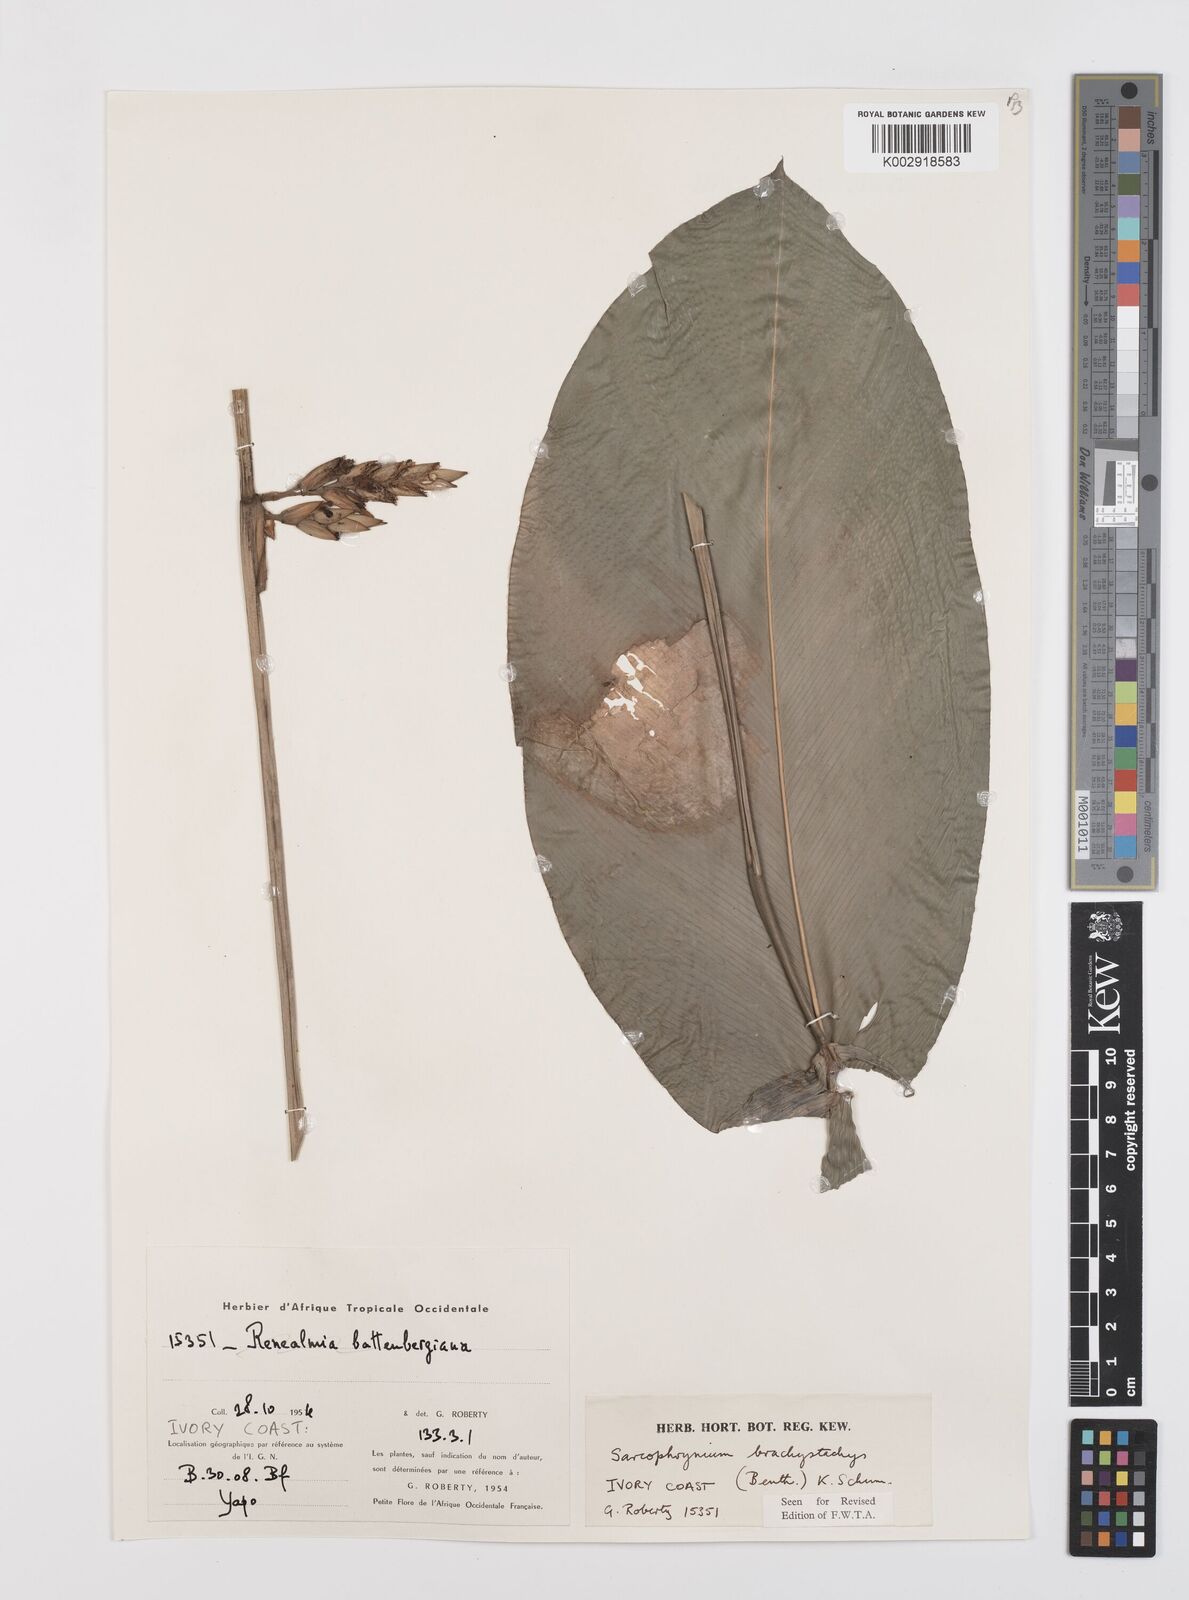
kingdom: Plantae
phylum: Tracheophyta
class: Liliopsida
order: Zingiberales
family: Marantaceae
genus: Sarcophrynium
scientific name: Sarcophrynium brachystachyum
